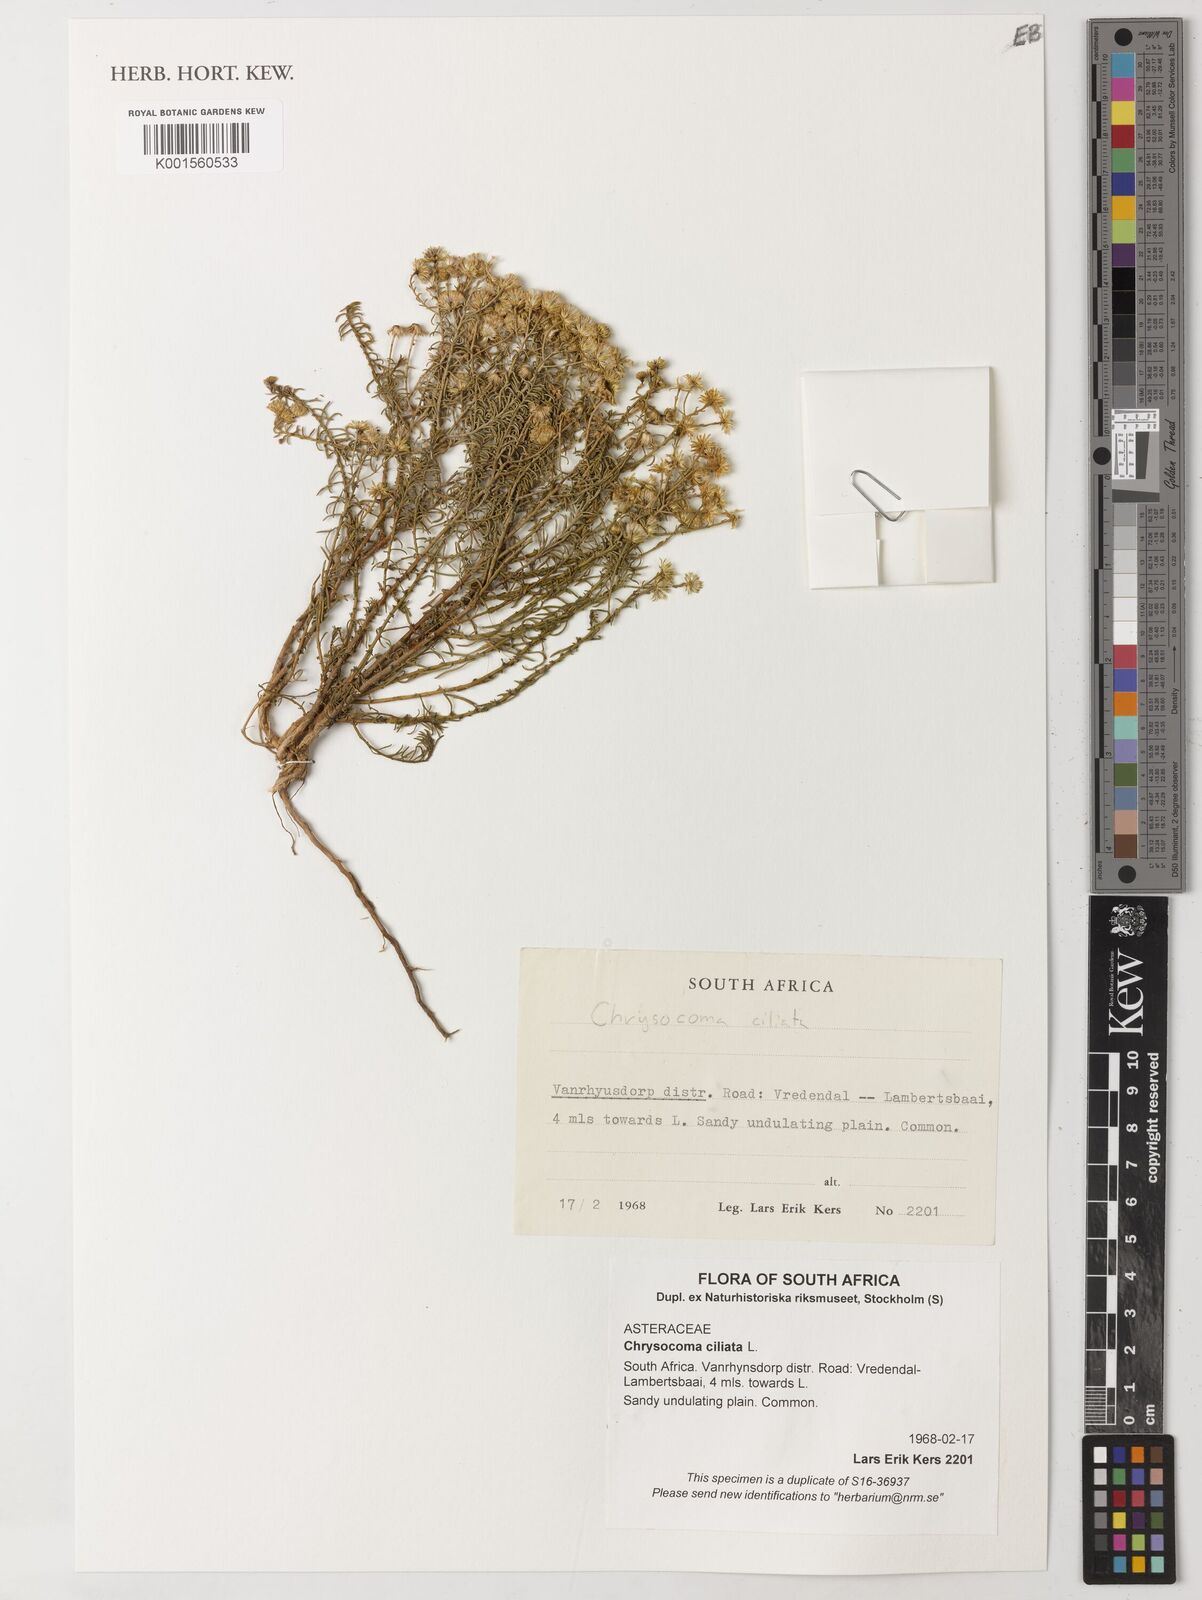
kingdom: Plantae
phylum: Tracheophyta
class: Magnoliopsida
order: Asterales
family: Asteraceae
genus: Chrysocoma
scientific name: Chrysocoma ciliata
